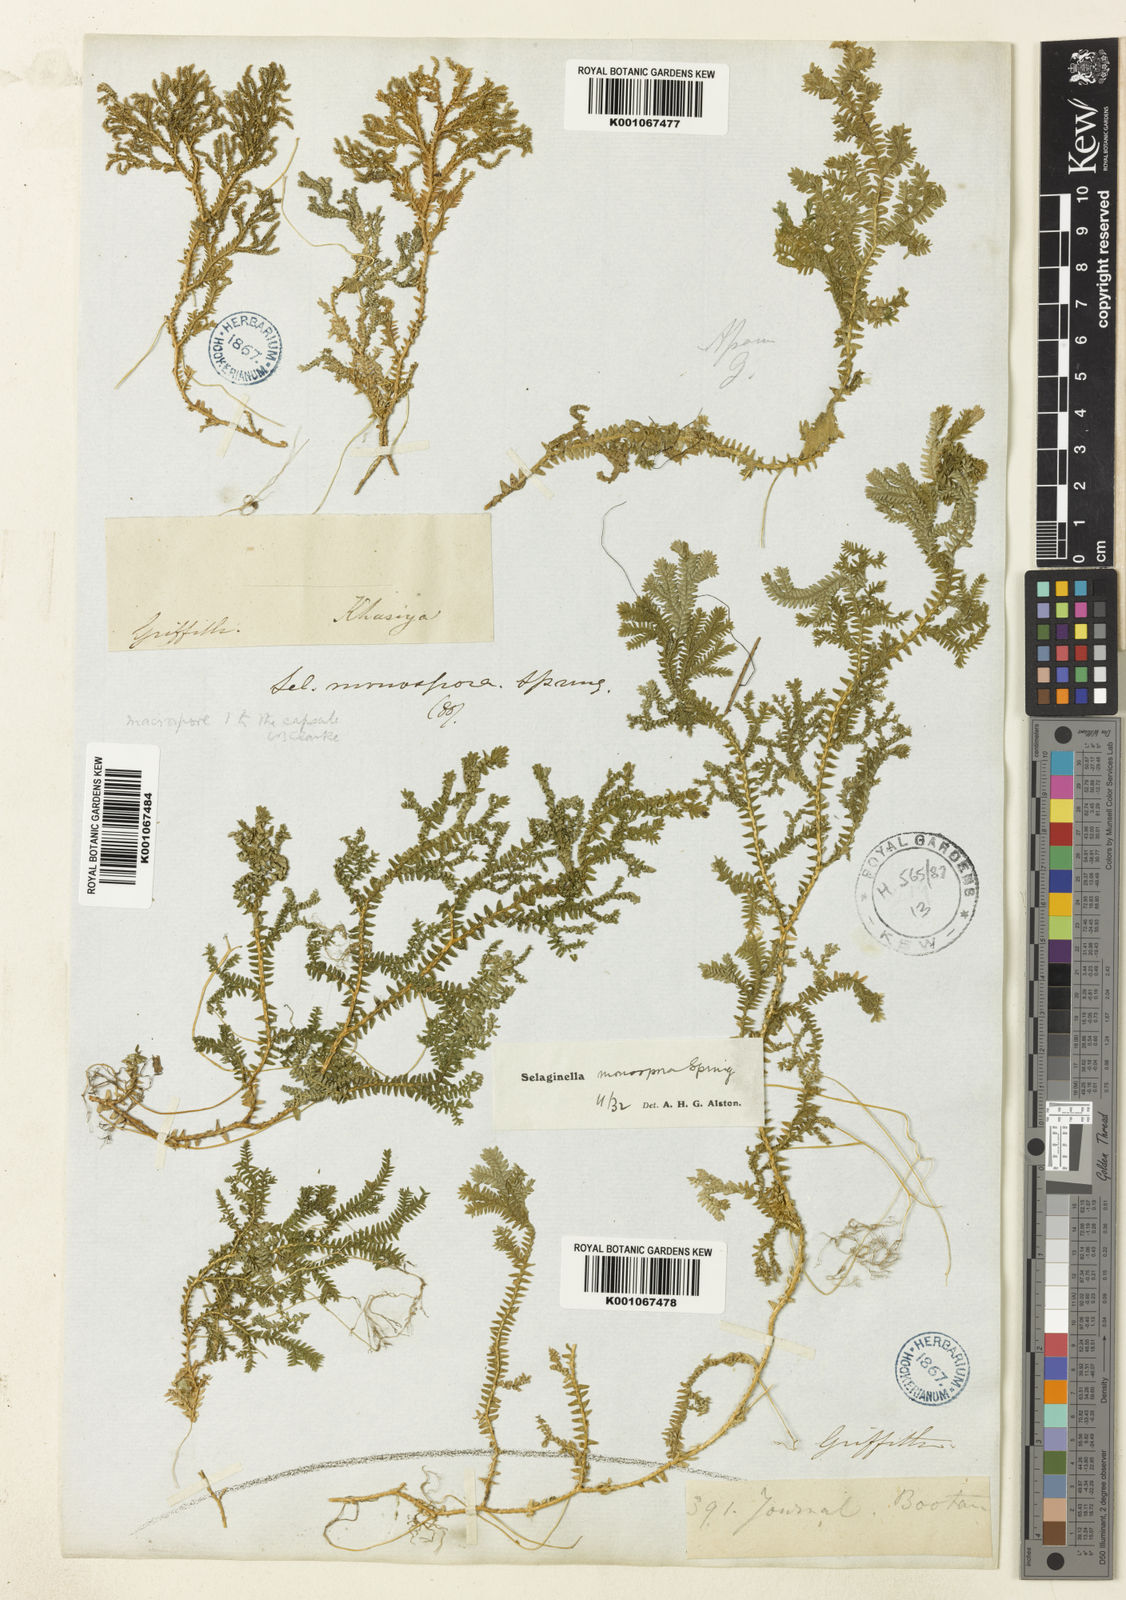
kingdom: Plantae
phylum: Tracheophyta
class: Lycopodiopsida
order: Selaginellales
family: Selaginellaceae
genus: Selaginella
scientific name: Selaginella monospora
